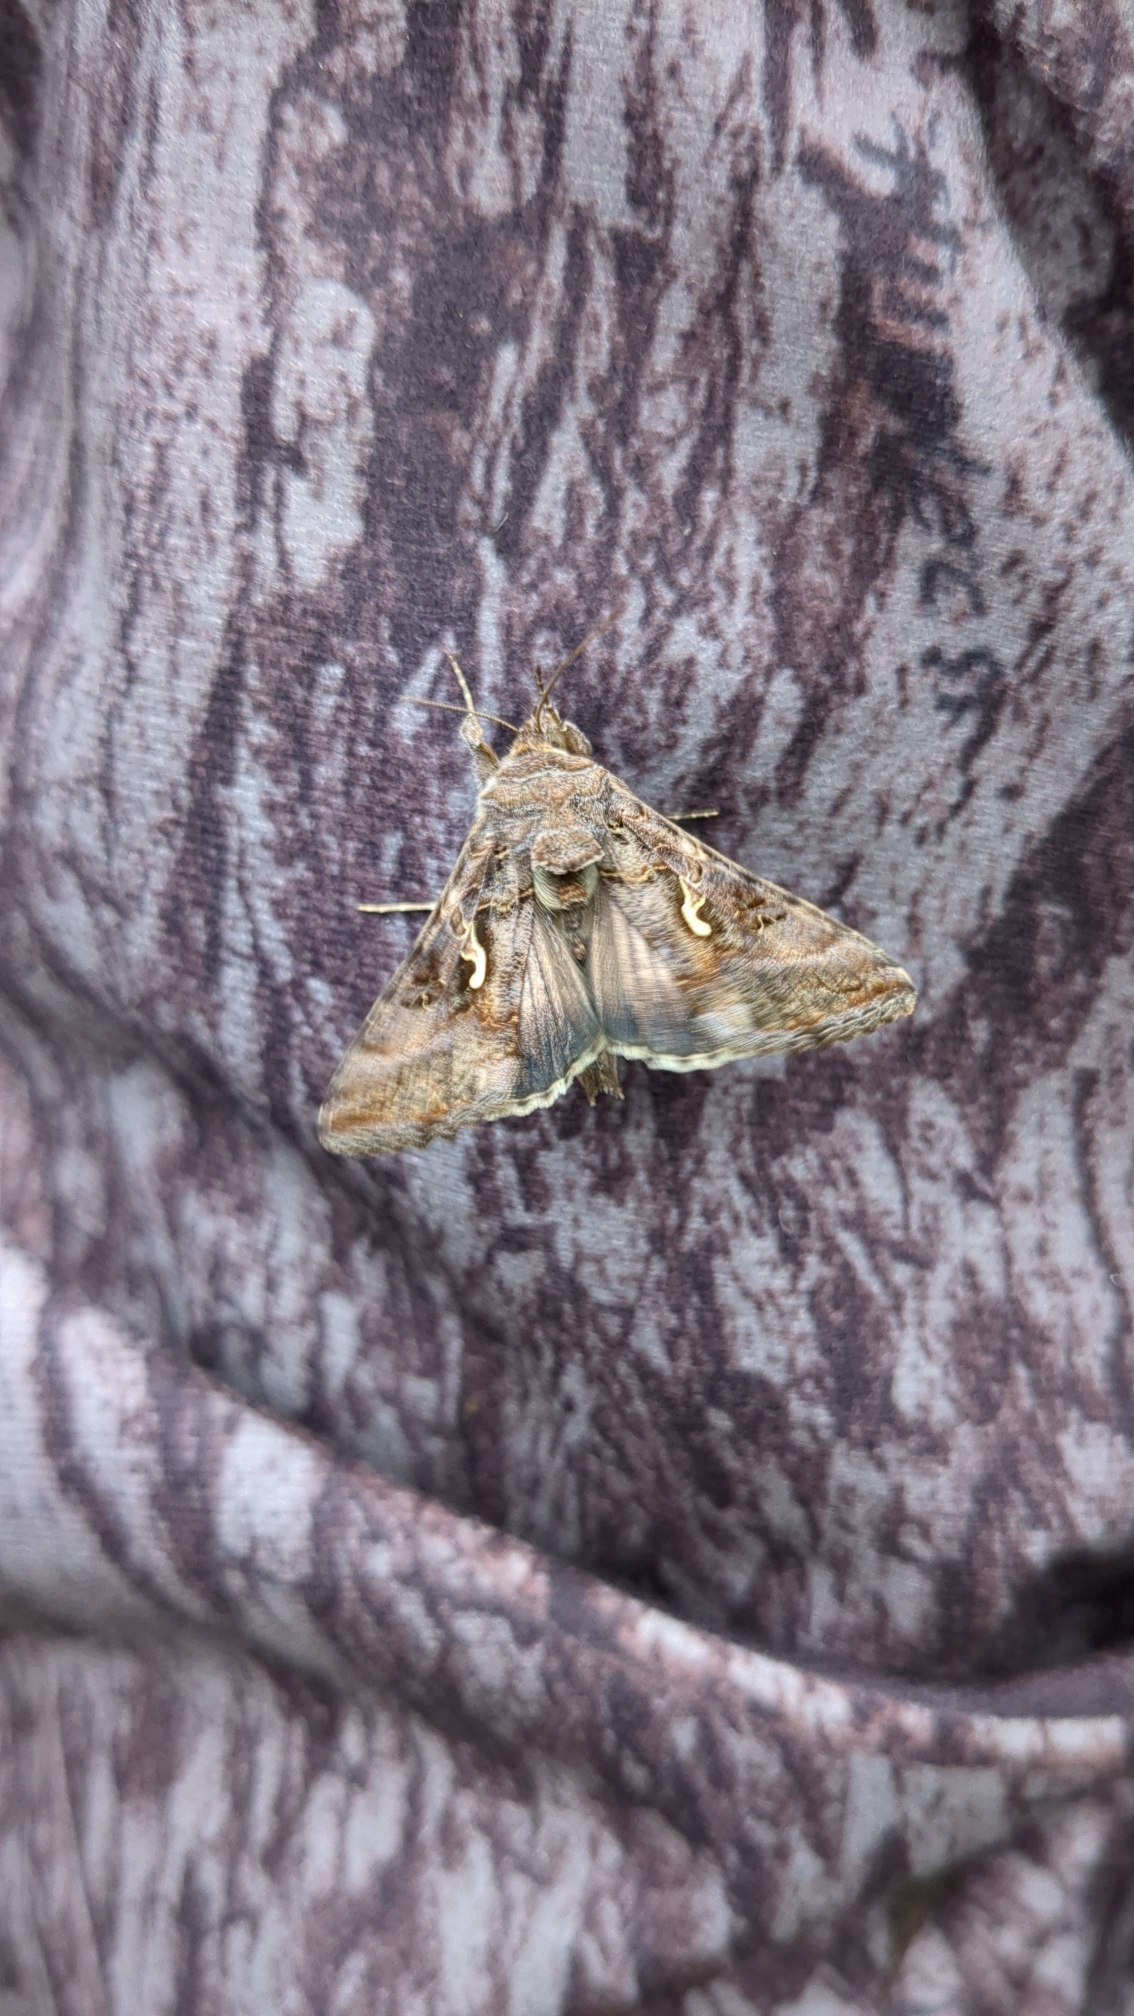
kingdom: Animalia
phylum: Arthropoda
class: Insecta
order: Lepidoptera
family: Noctuidae
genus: Autographa
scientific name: Autographa gamma
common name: Gammaugle
